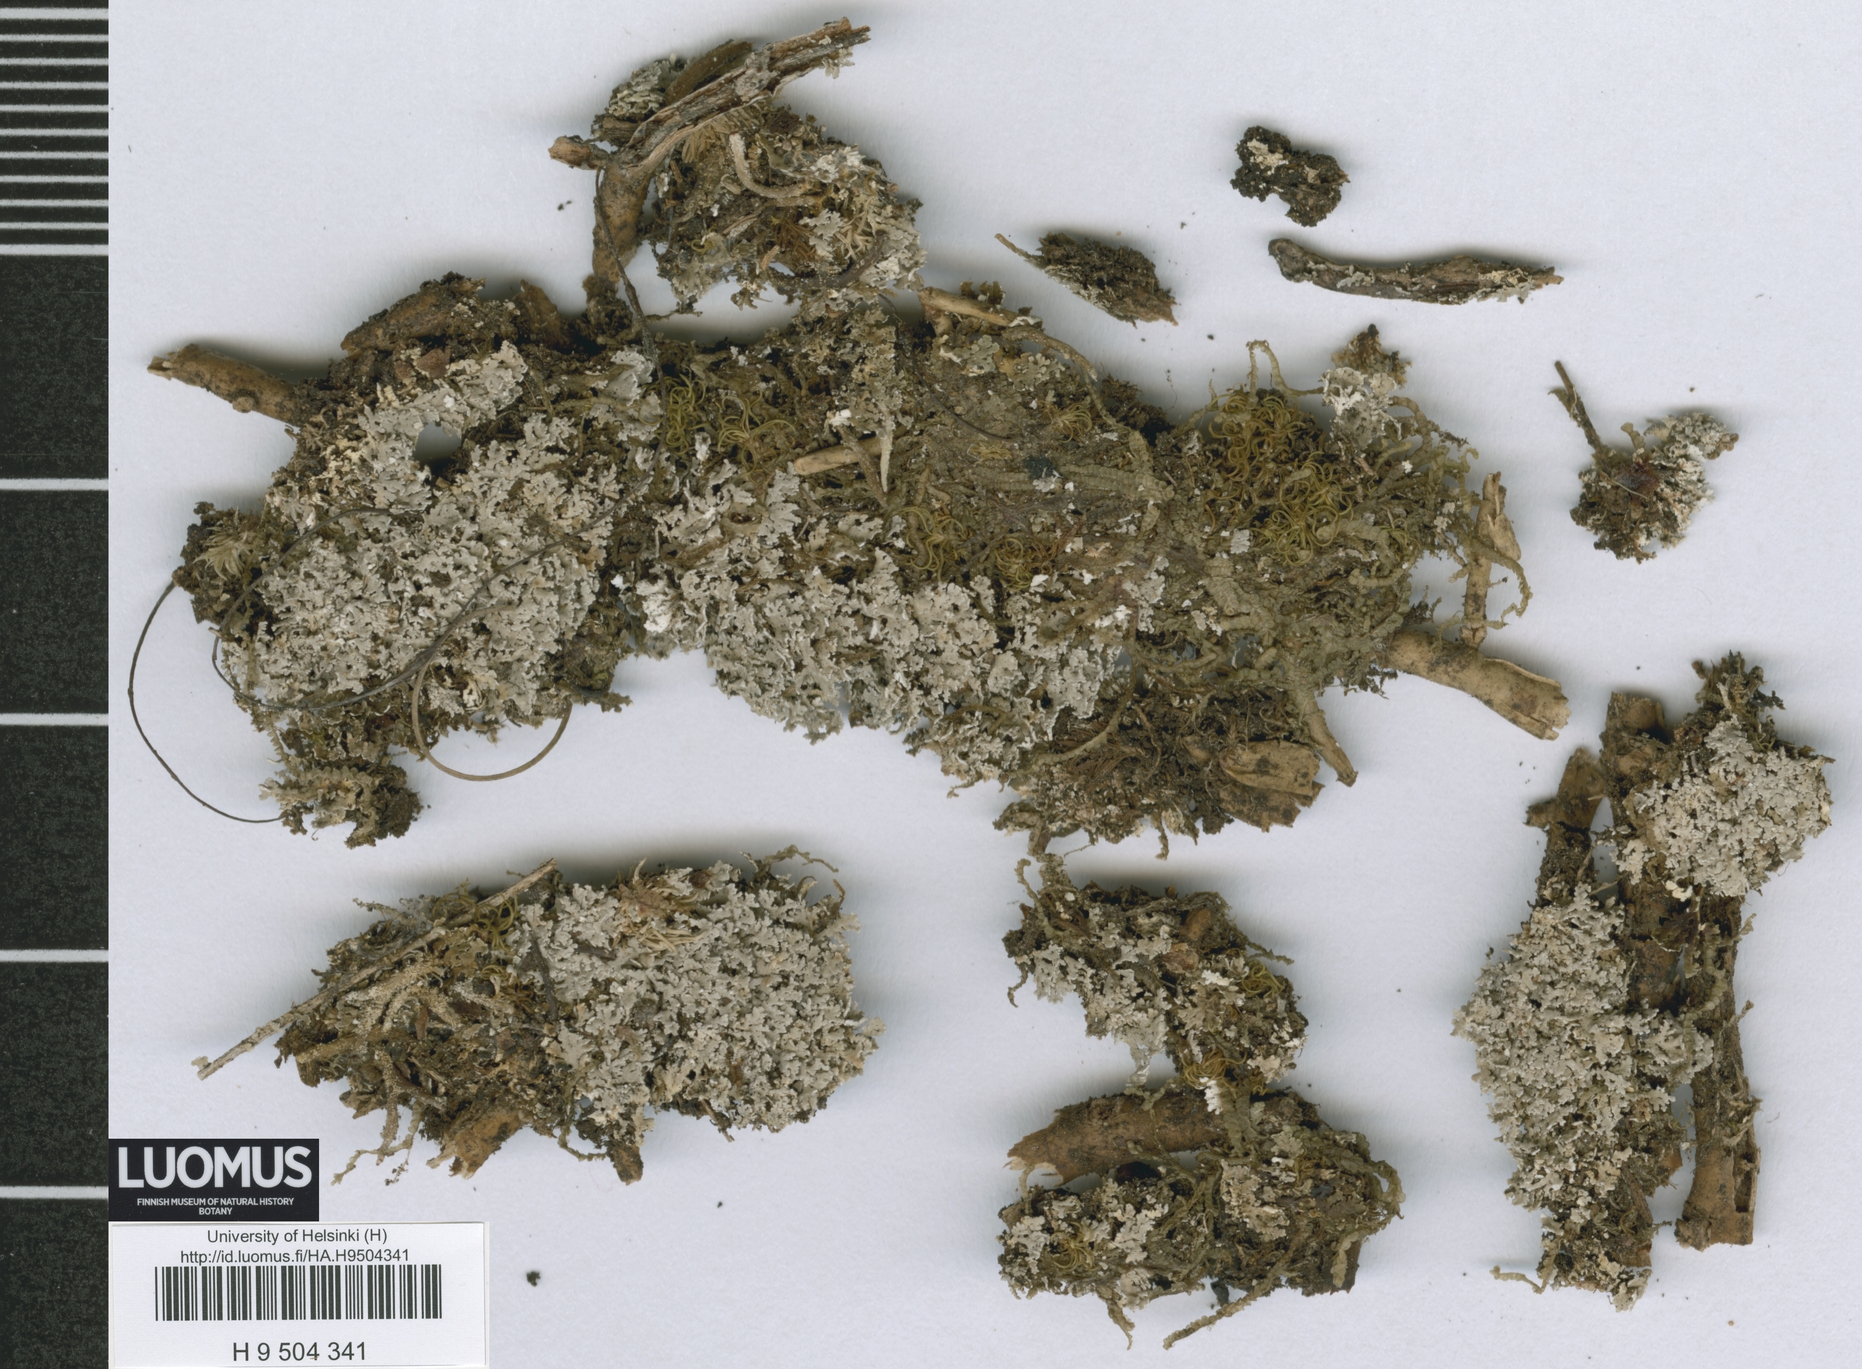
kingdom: Fungi
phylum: Ascomycota
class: Lecanoromycetes
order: Lecanorales
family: Cladoniaceae
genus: Cladonia
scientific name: Cladonia persquamulosa
